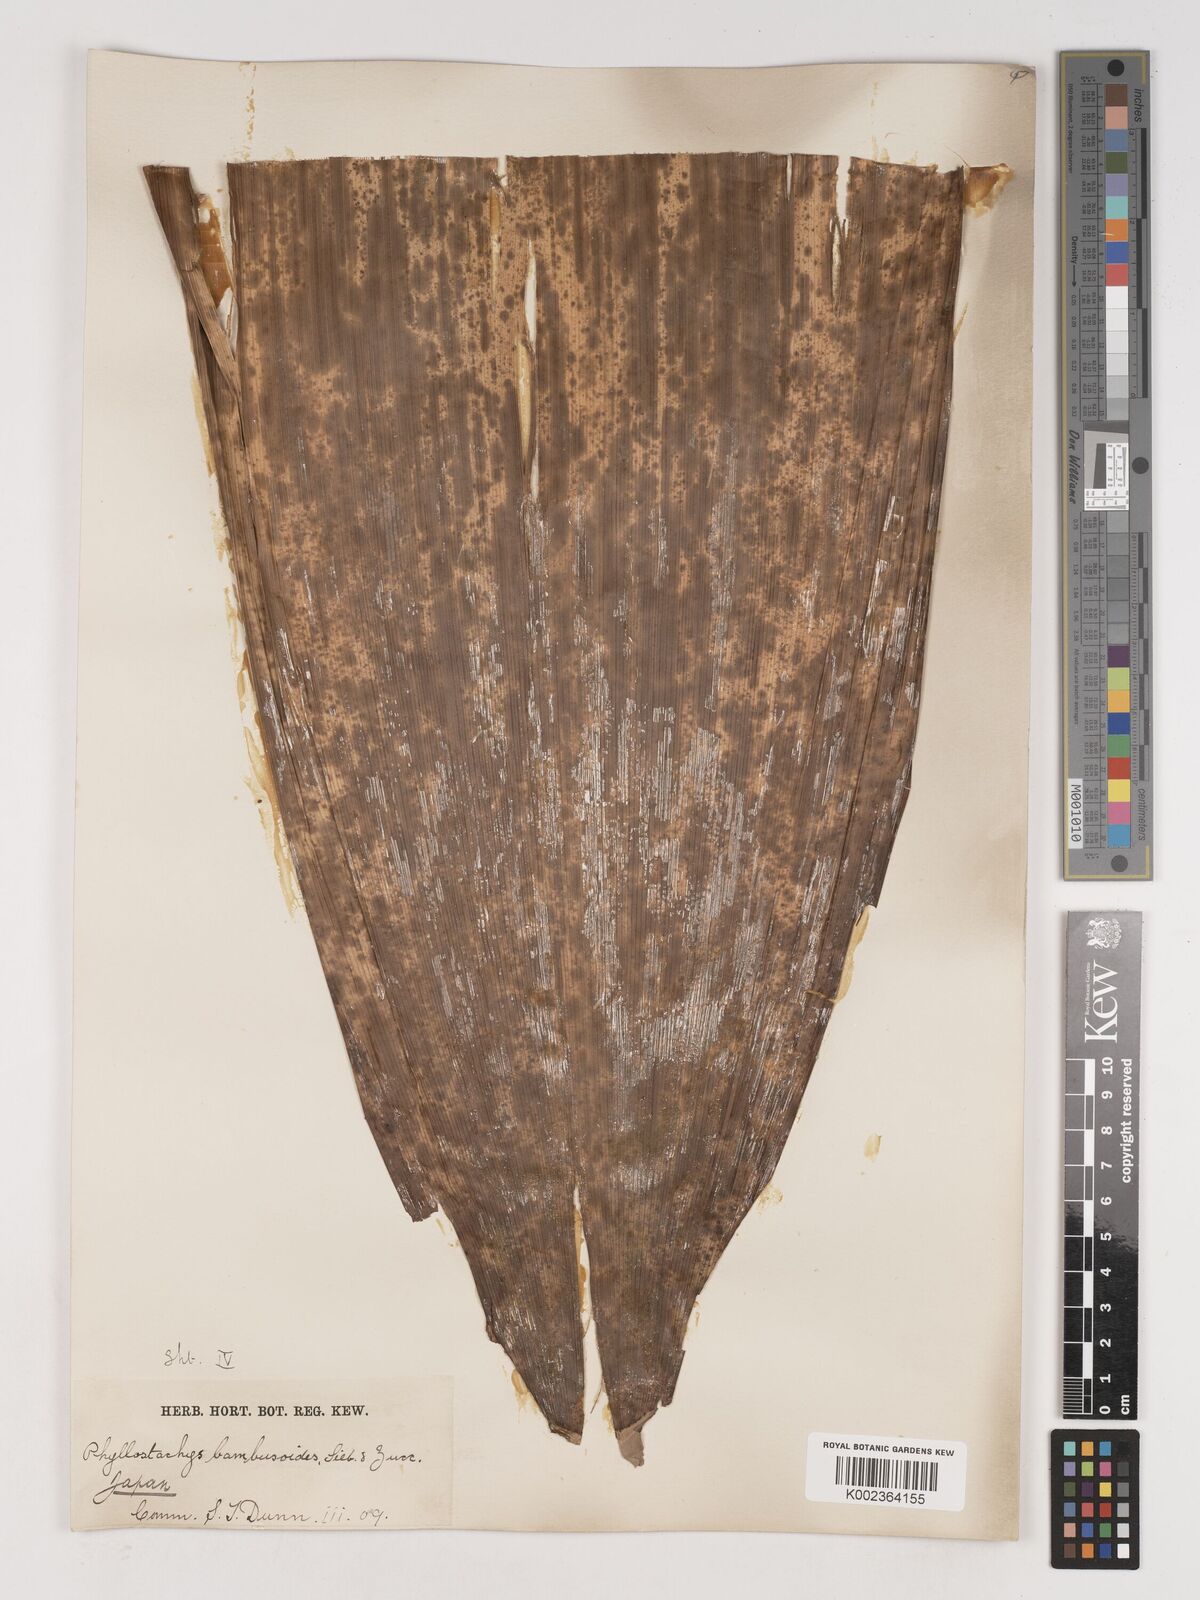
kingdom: Plantae
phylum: Tracheophyta
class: Liliopsida
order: Poales
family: Poaceae
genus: Phyllostachys
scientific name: Phyllostachys reticulata
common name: Bamboo
